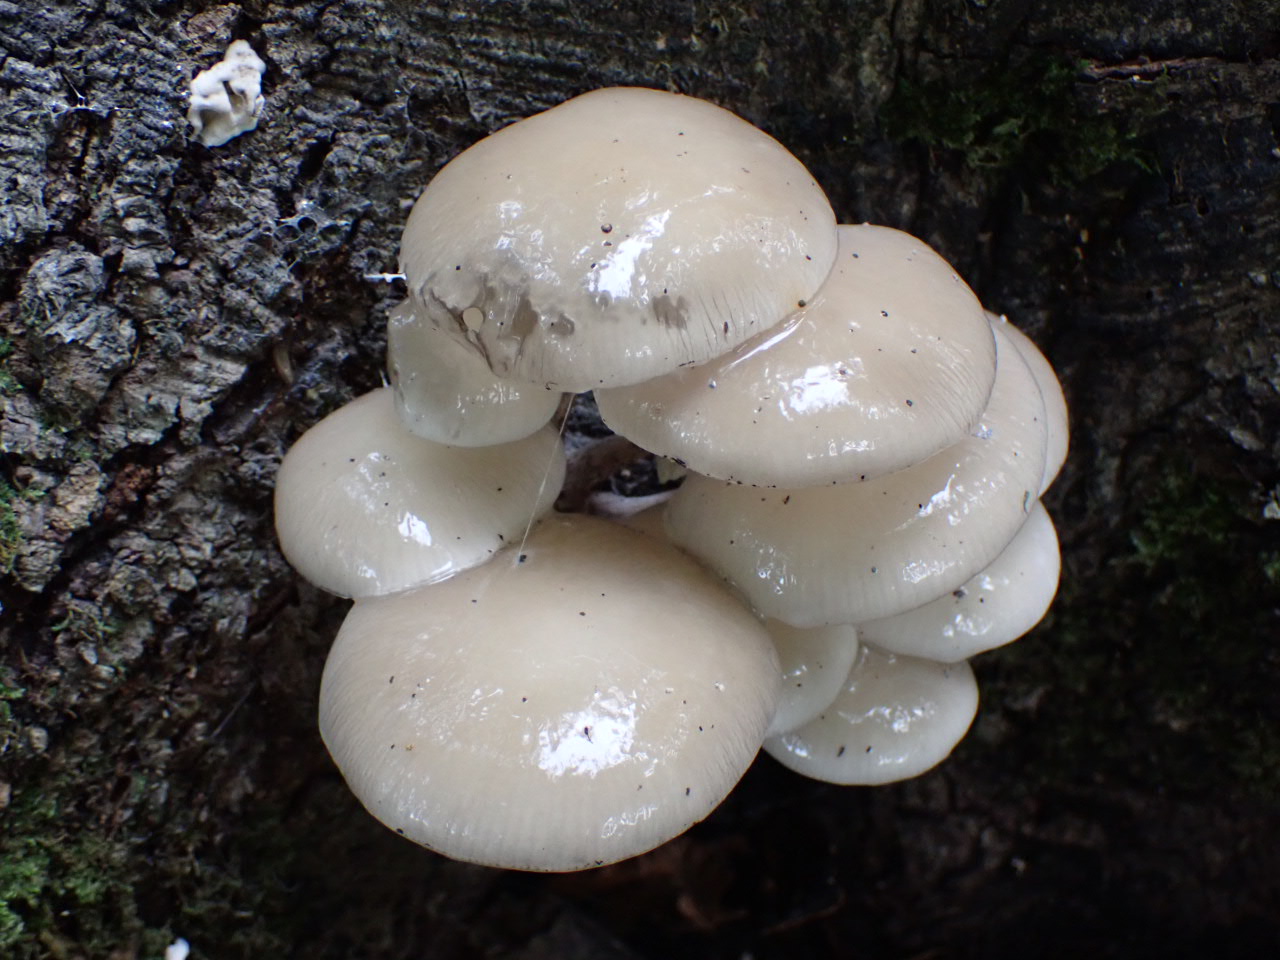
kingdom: Fungi
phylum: Basidiomycota
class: Agaricomycetes
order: Agaricales
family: Physalacriaceae
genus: Mucidula
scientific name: Mucidula mucida
